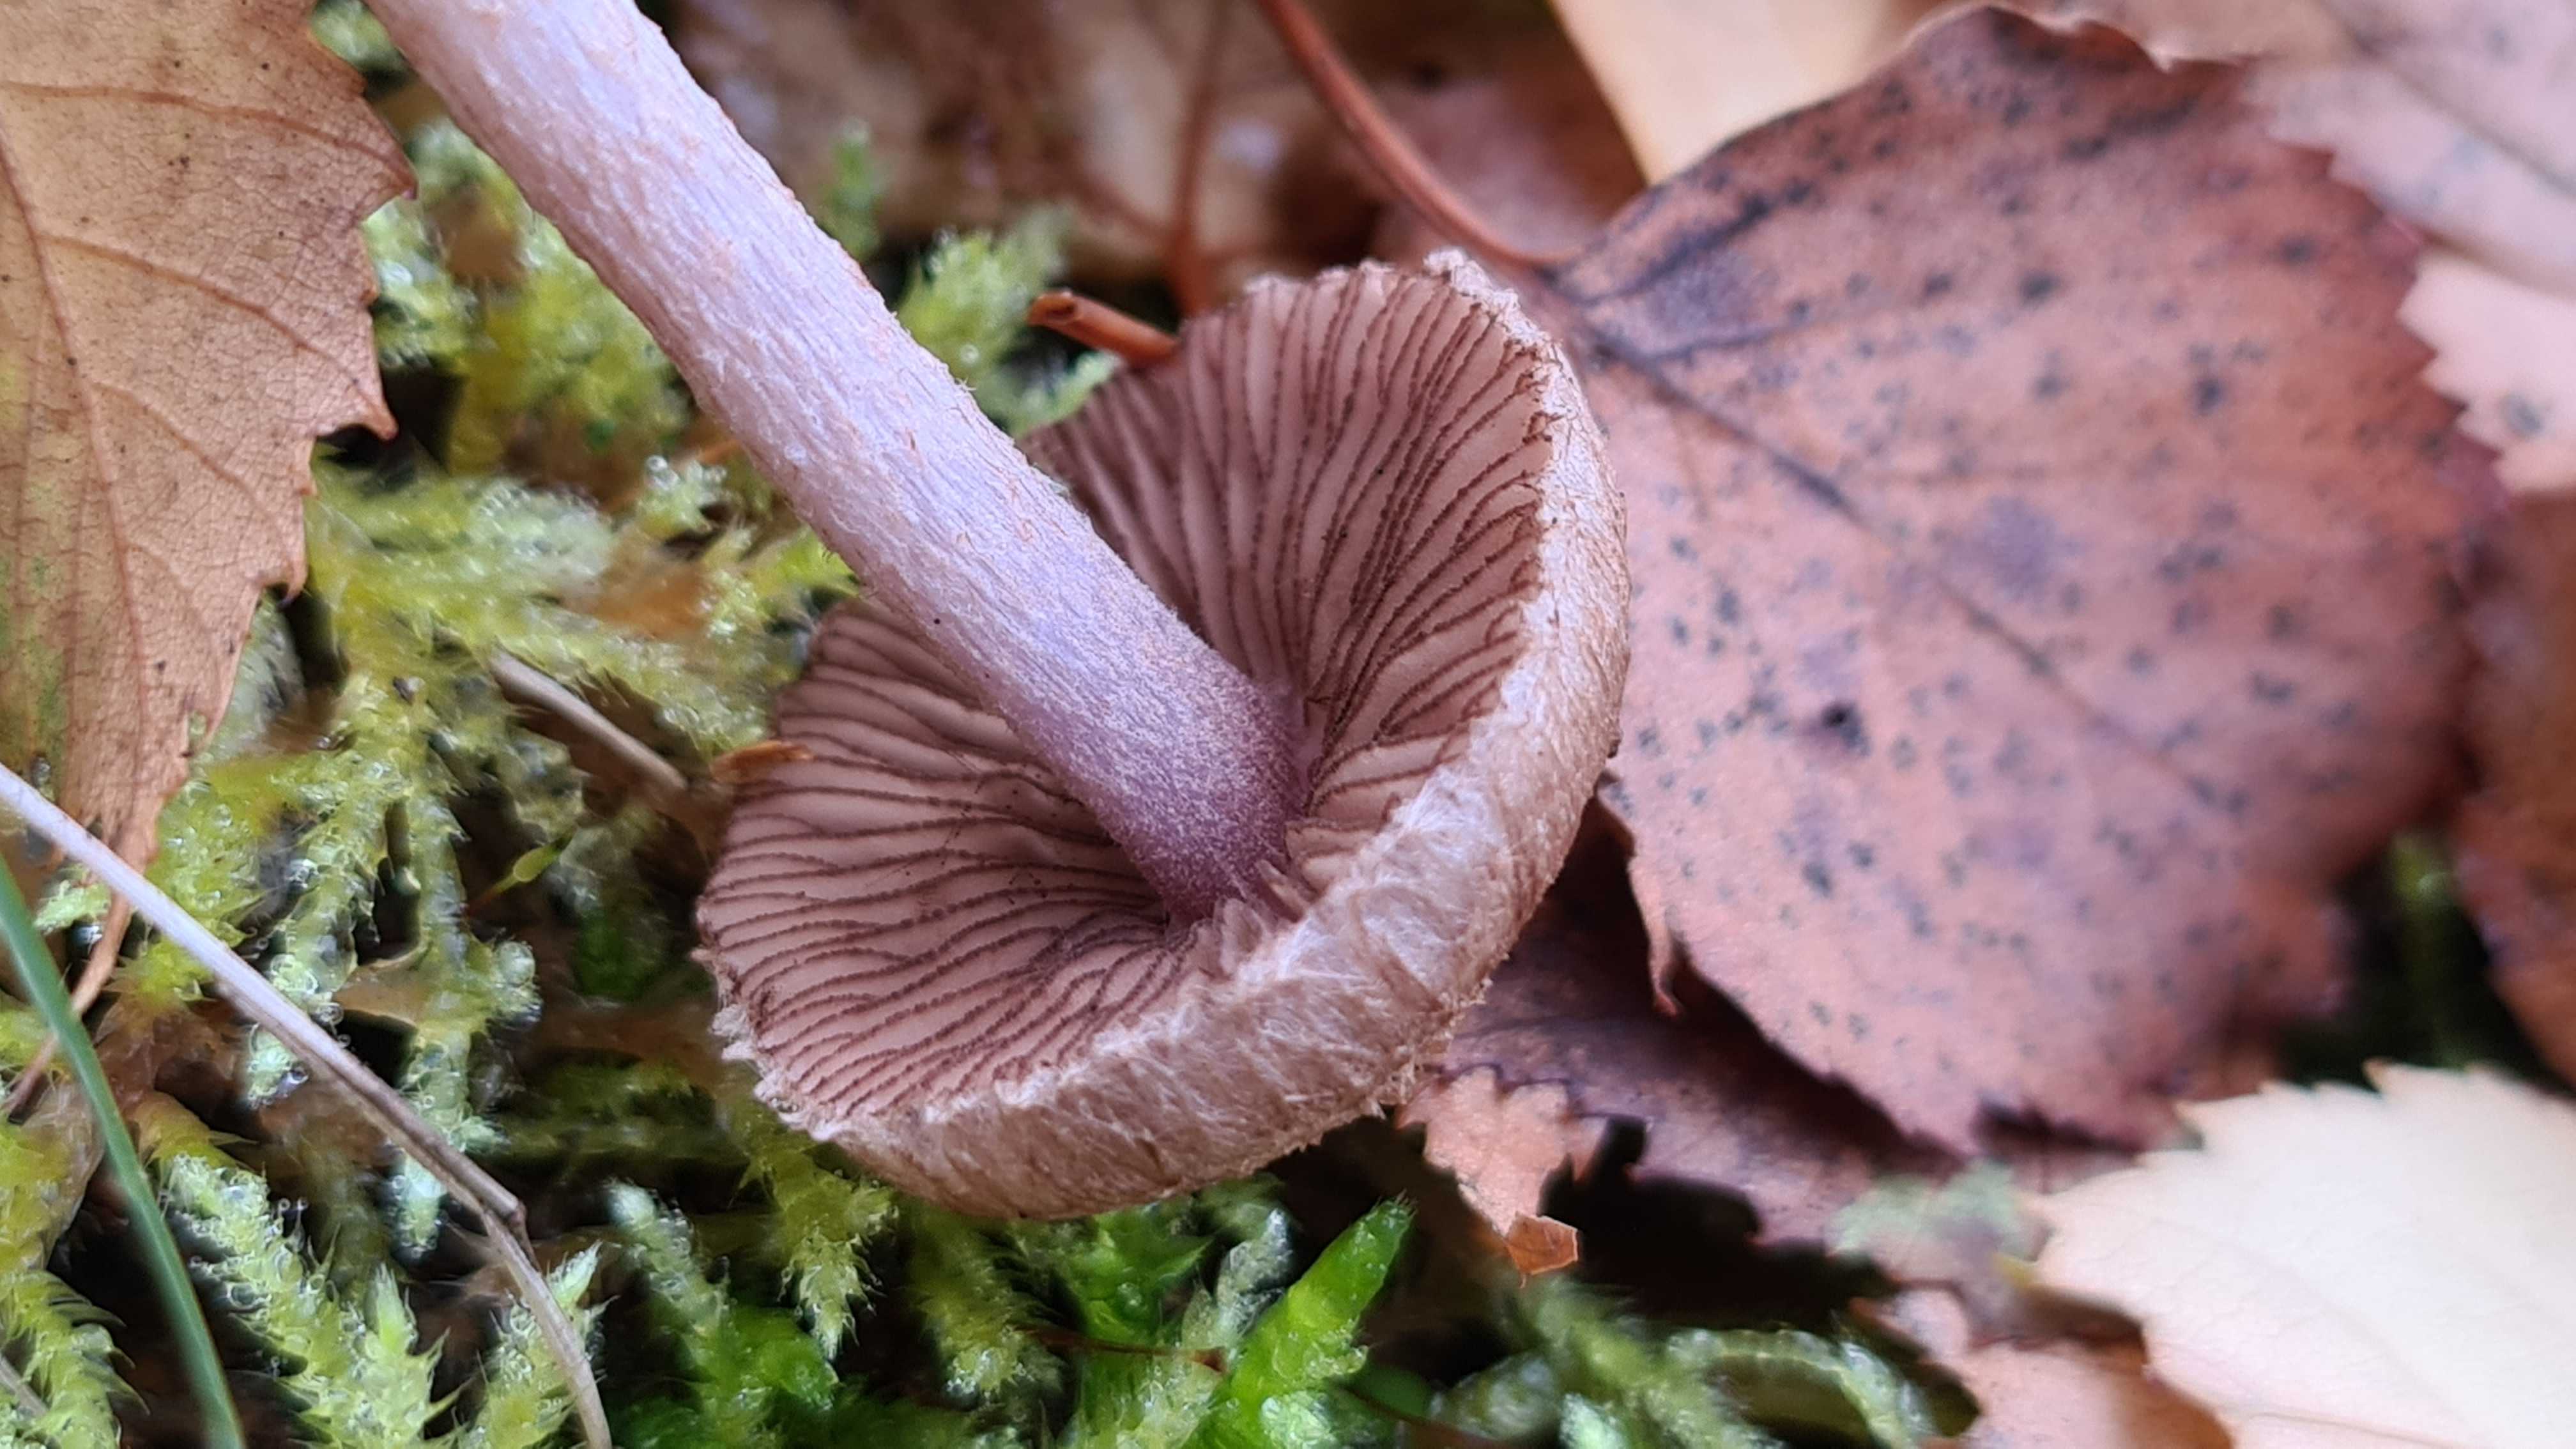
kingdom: Fungi
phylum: Basidiomycota
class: Agaricomycetes
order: Agaricales
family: Inocybaceae
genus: Inocybe
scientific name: Inocybe cincinnata
